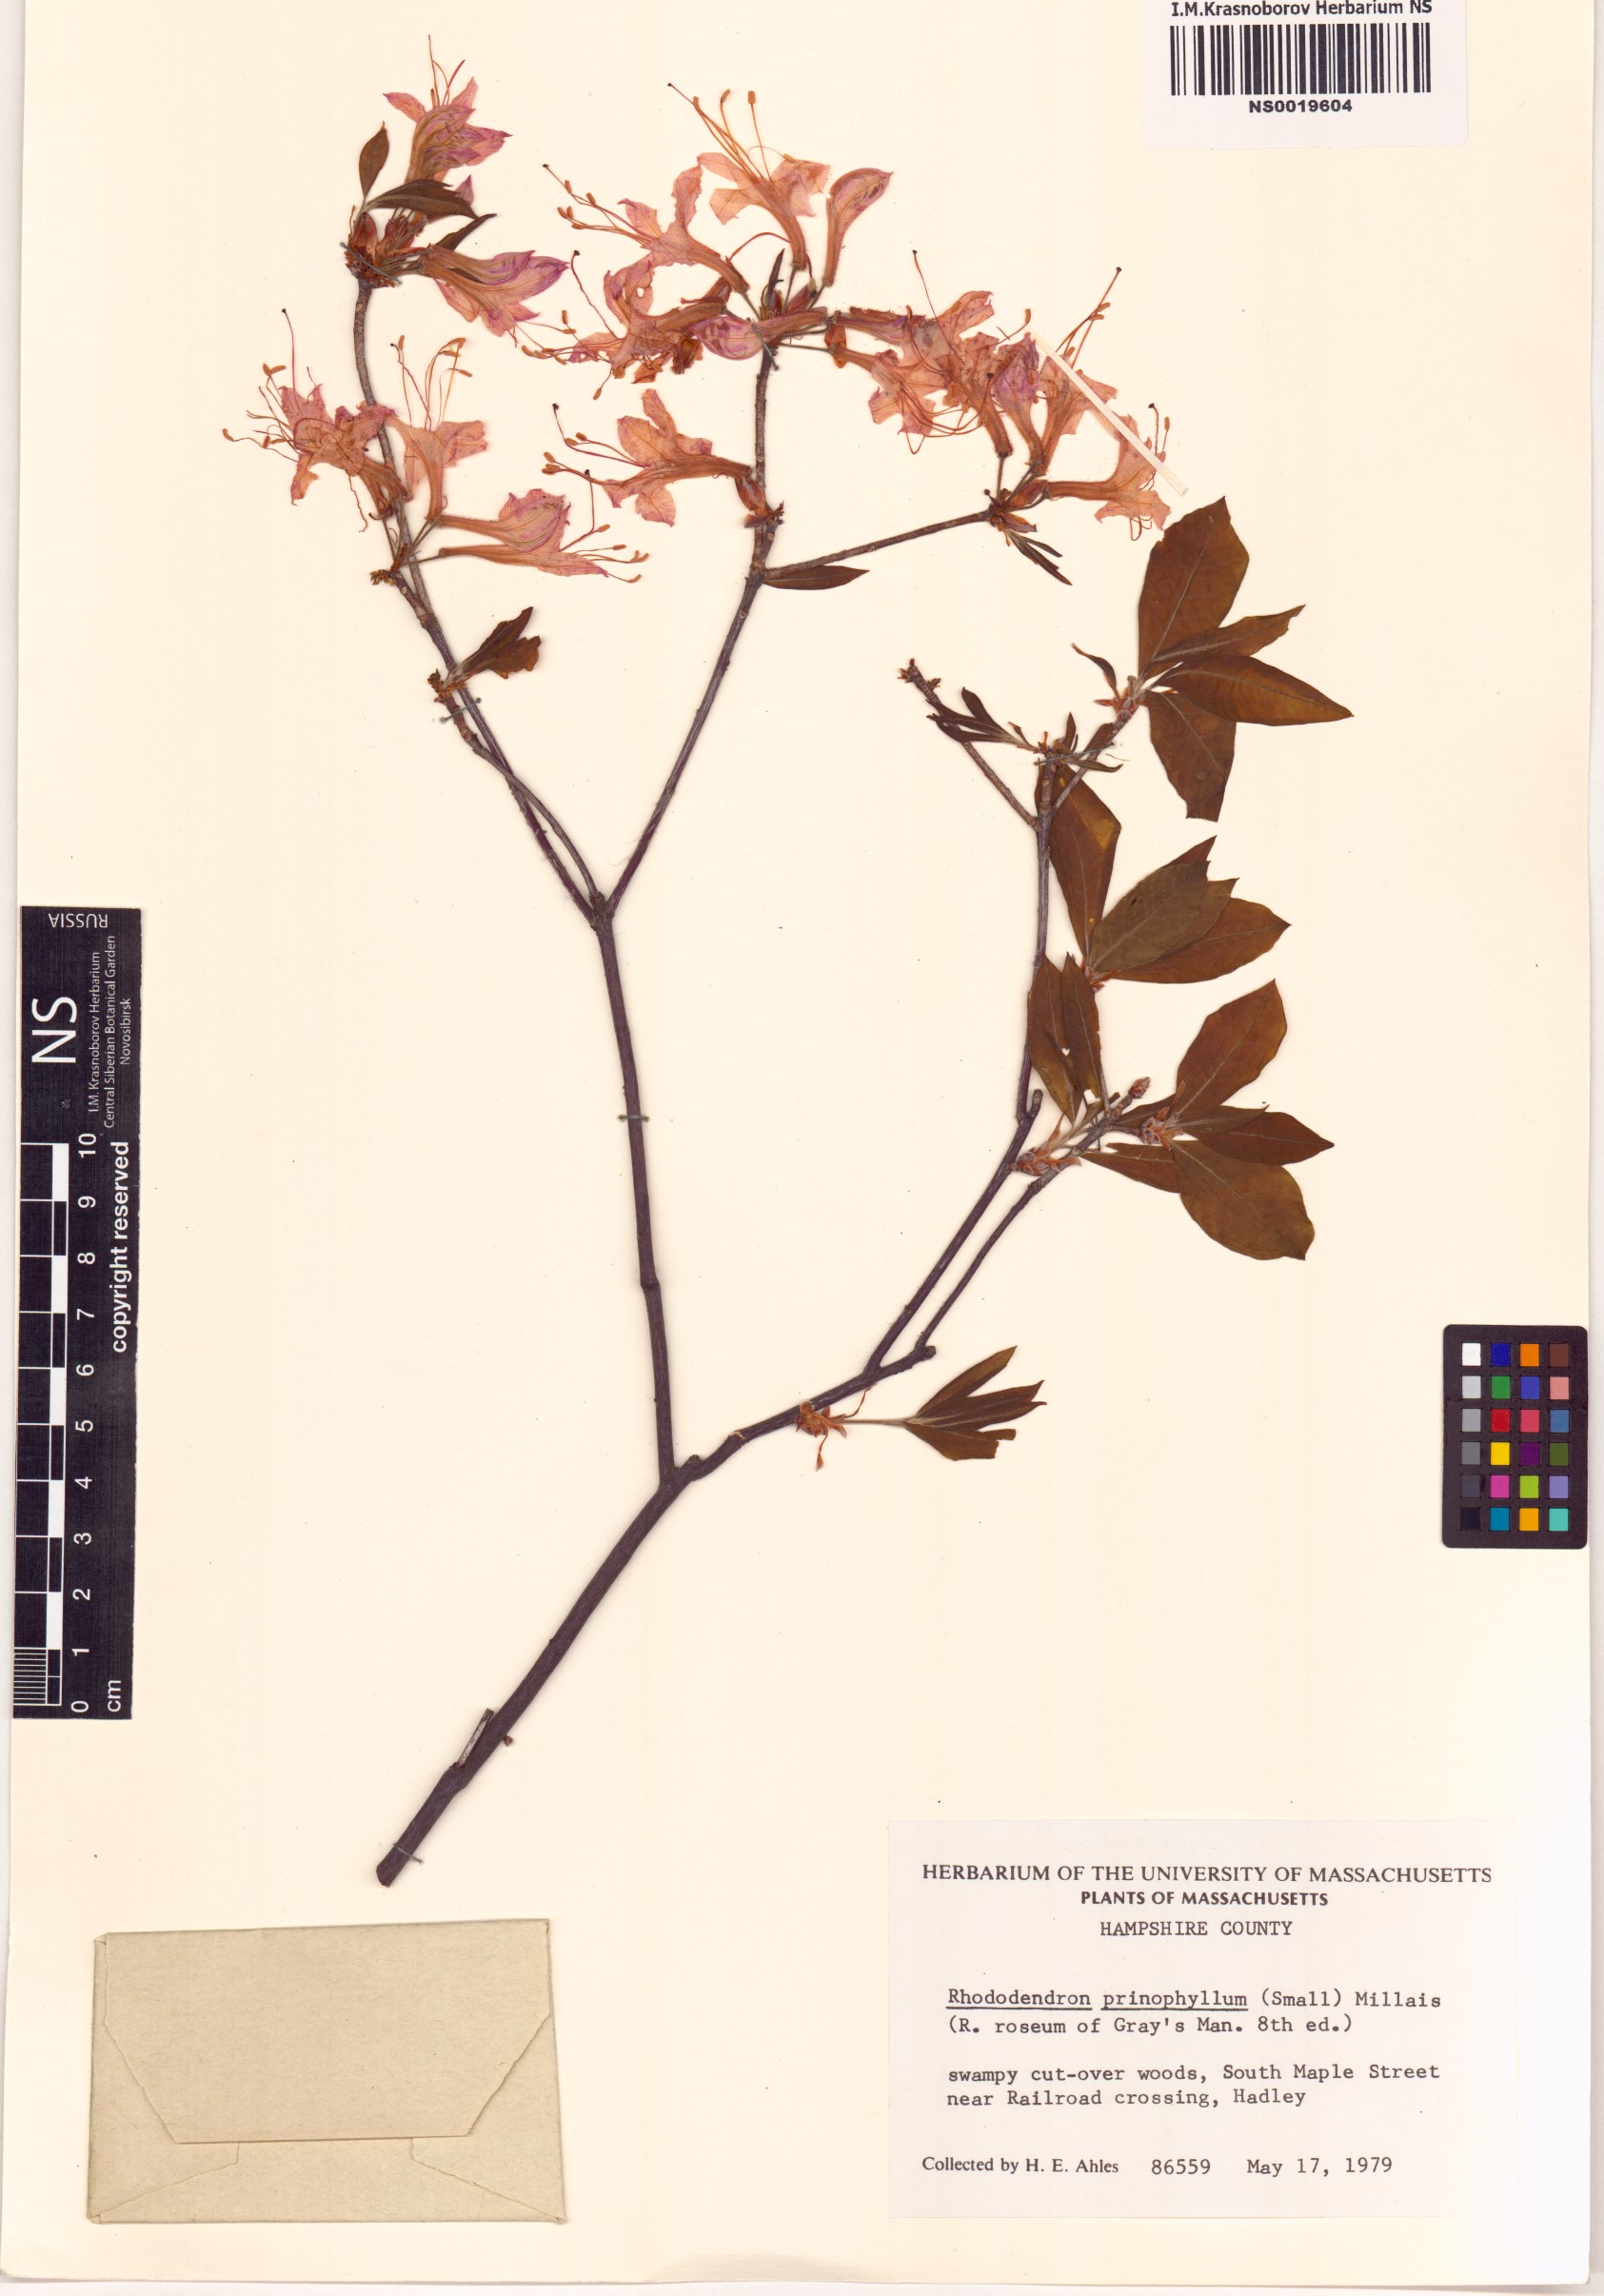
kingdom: Plantae
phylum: Tracheophyta
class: Magnoliopsida
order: Ericales
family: Ericaceae
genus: Rhododendron
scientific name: Rhododendron roseum
